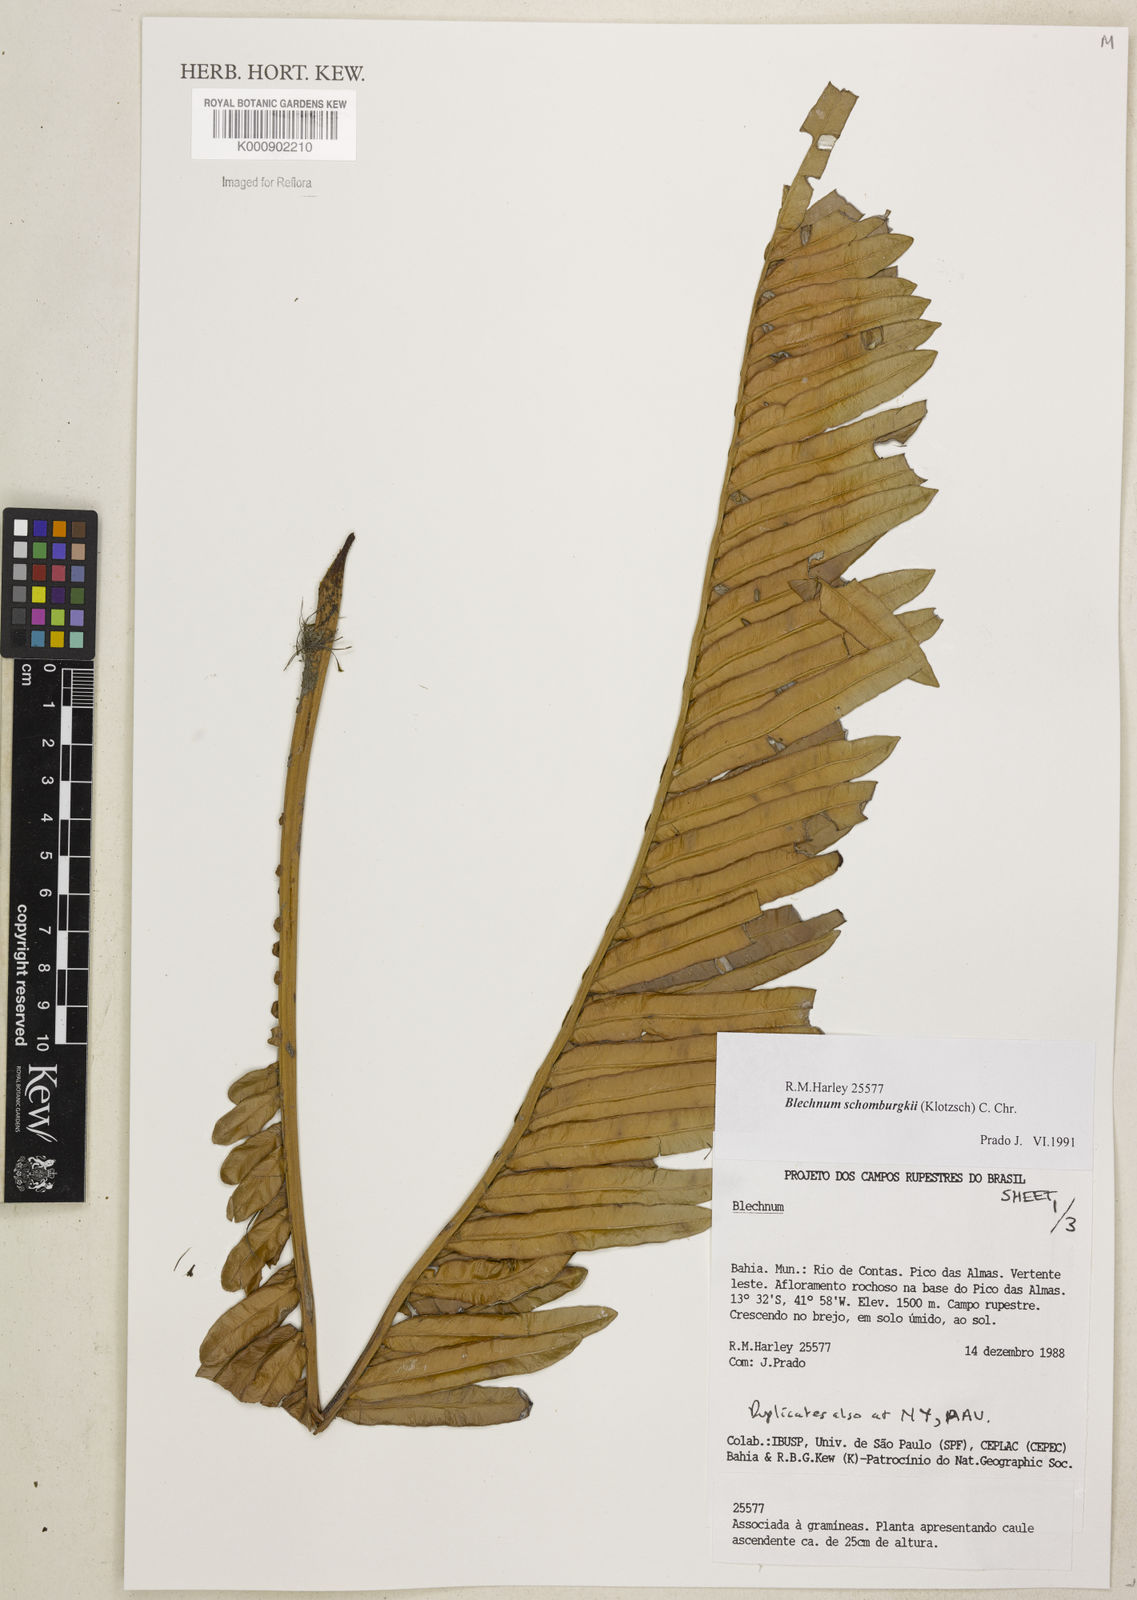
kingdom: Plantae
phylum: Tracheophyta
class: Polypodiopsida
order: Polypodiales
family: Blechnaceae
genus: Lomariocycas
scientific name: Lomariocycas schomburgkii
